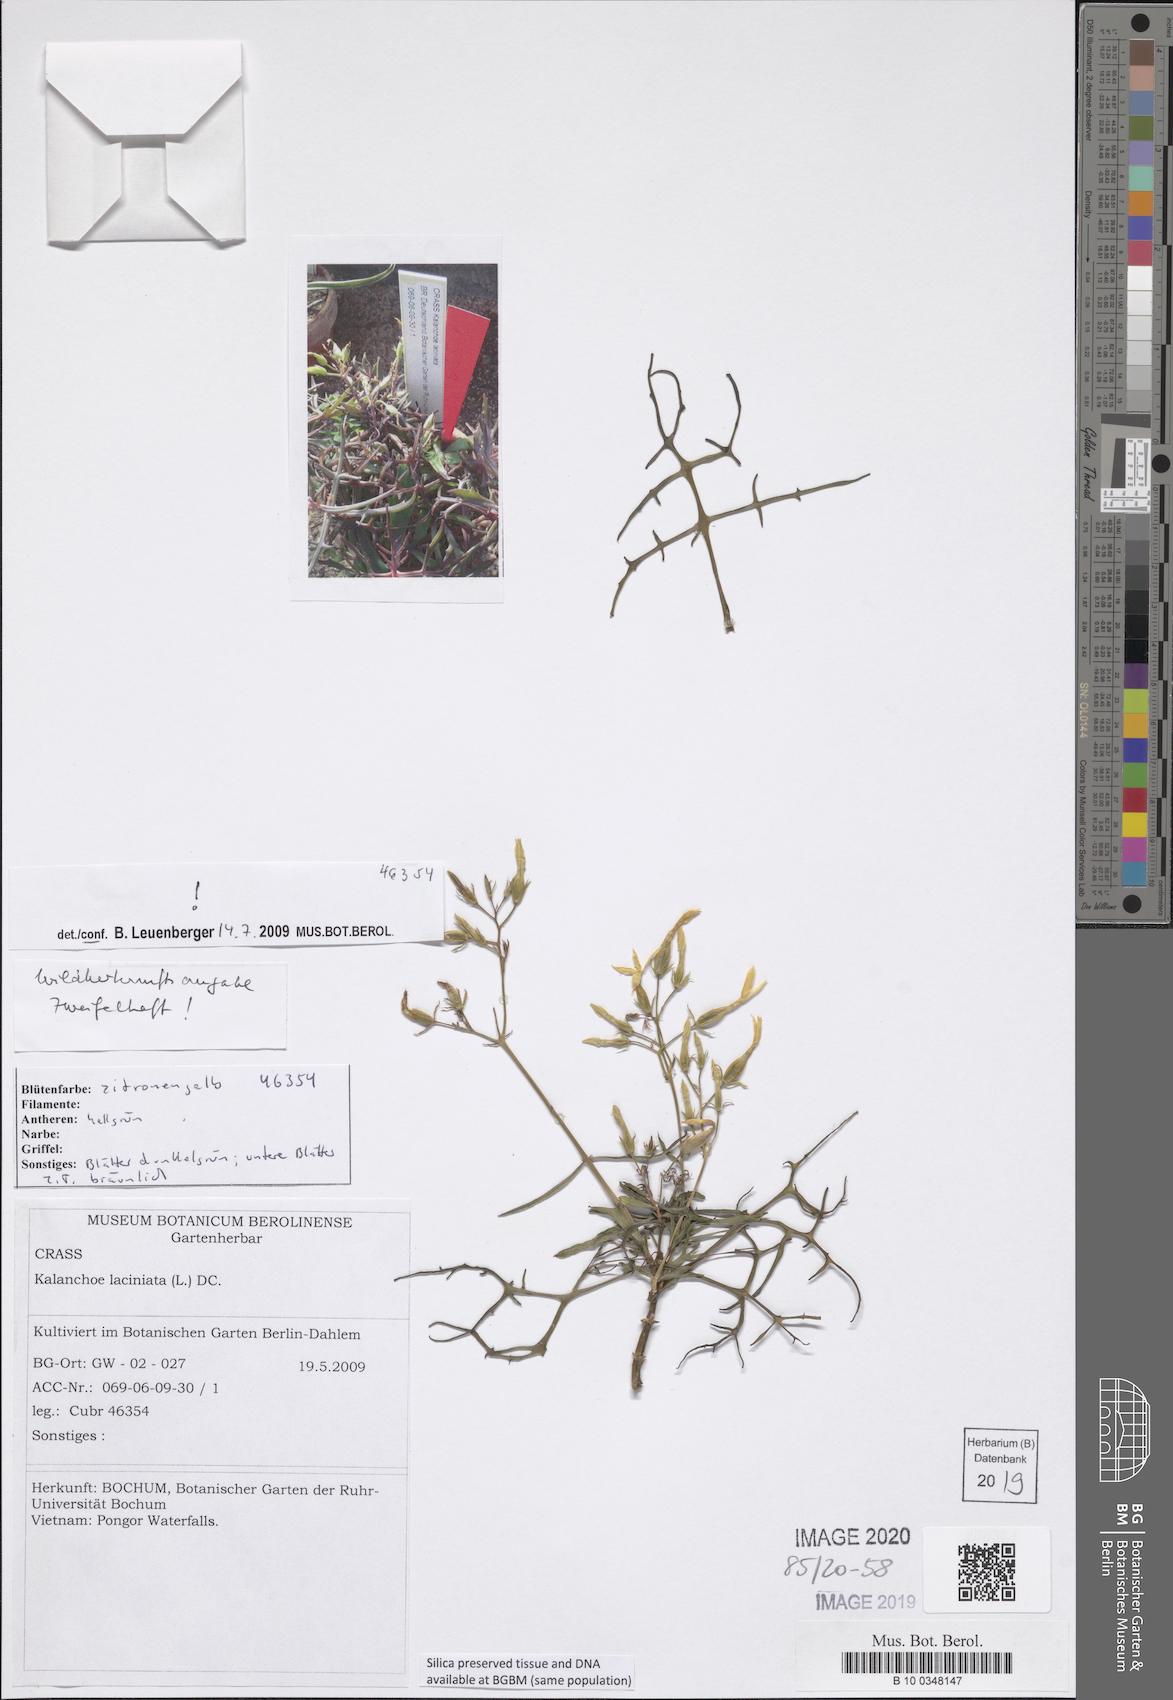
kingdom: Plantae
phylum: Tracheophyta
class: Magnoliopsida
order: Saxifragales
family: Crassulaceae
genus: Kalanchoe
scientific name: Kalanchoe laciniata
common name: Christmastree plant
